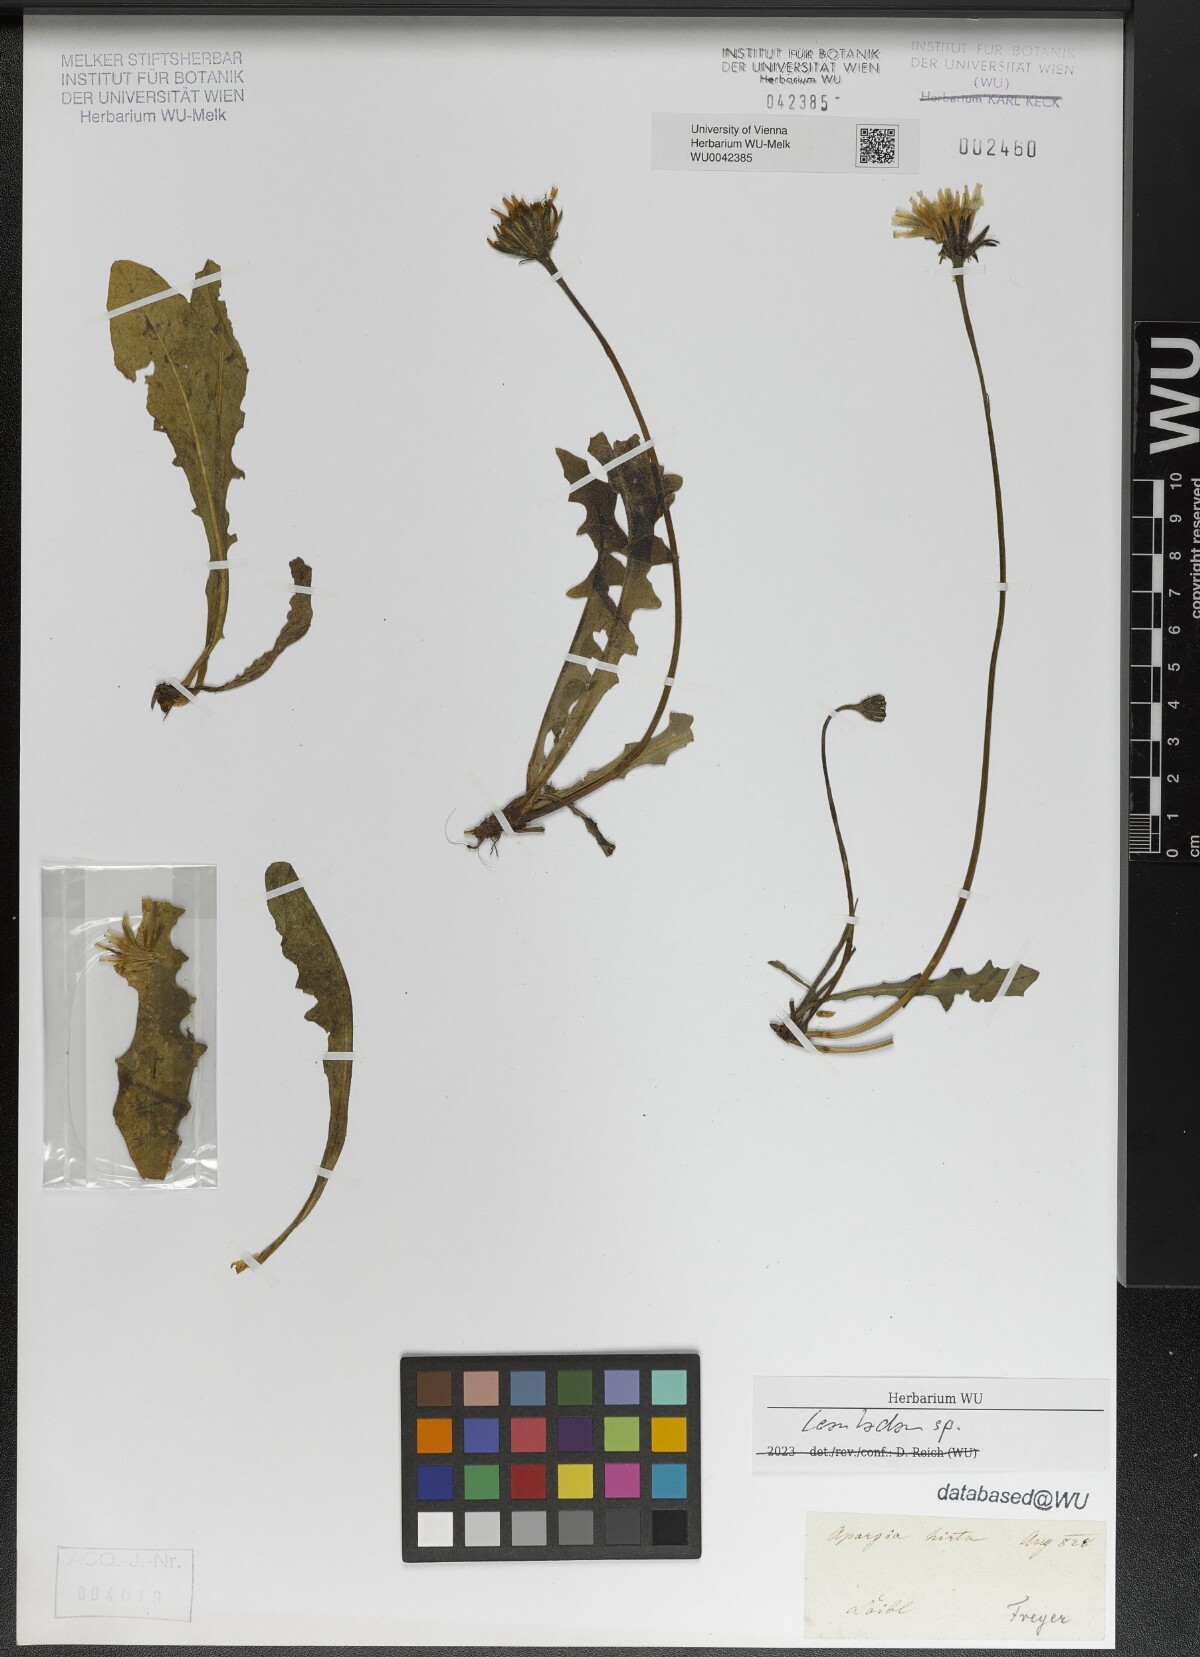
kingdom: Plantae
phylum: Tracheophyta
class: Magnoliopsida
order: Asterales
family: Asteraceae
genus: Leontodon
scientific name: Leontodon
